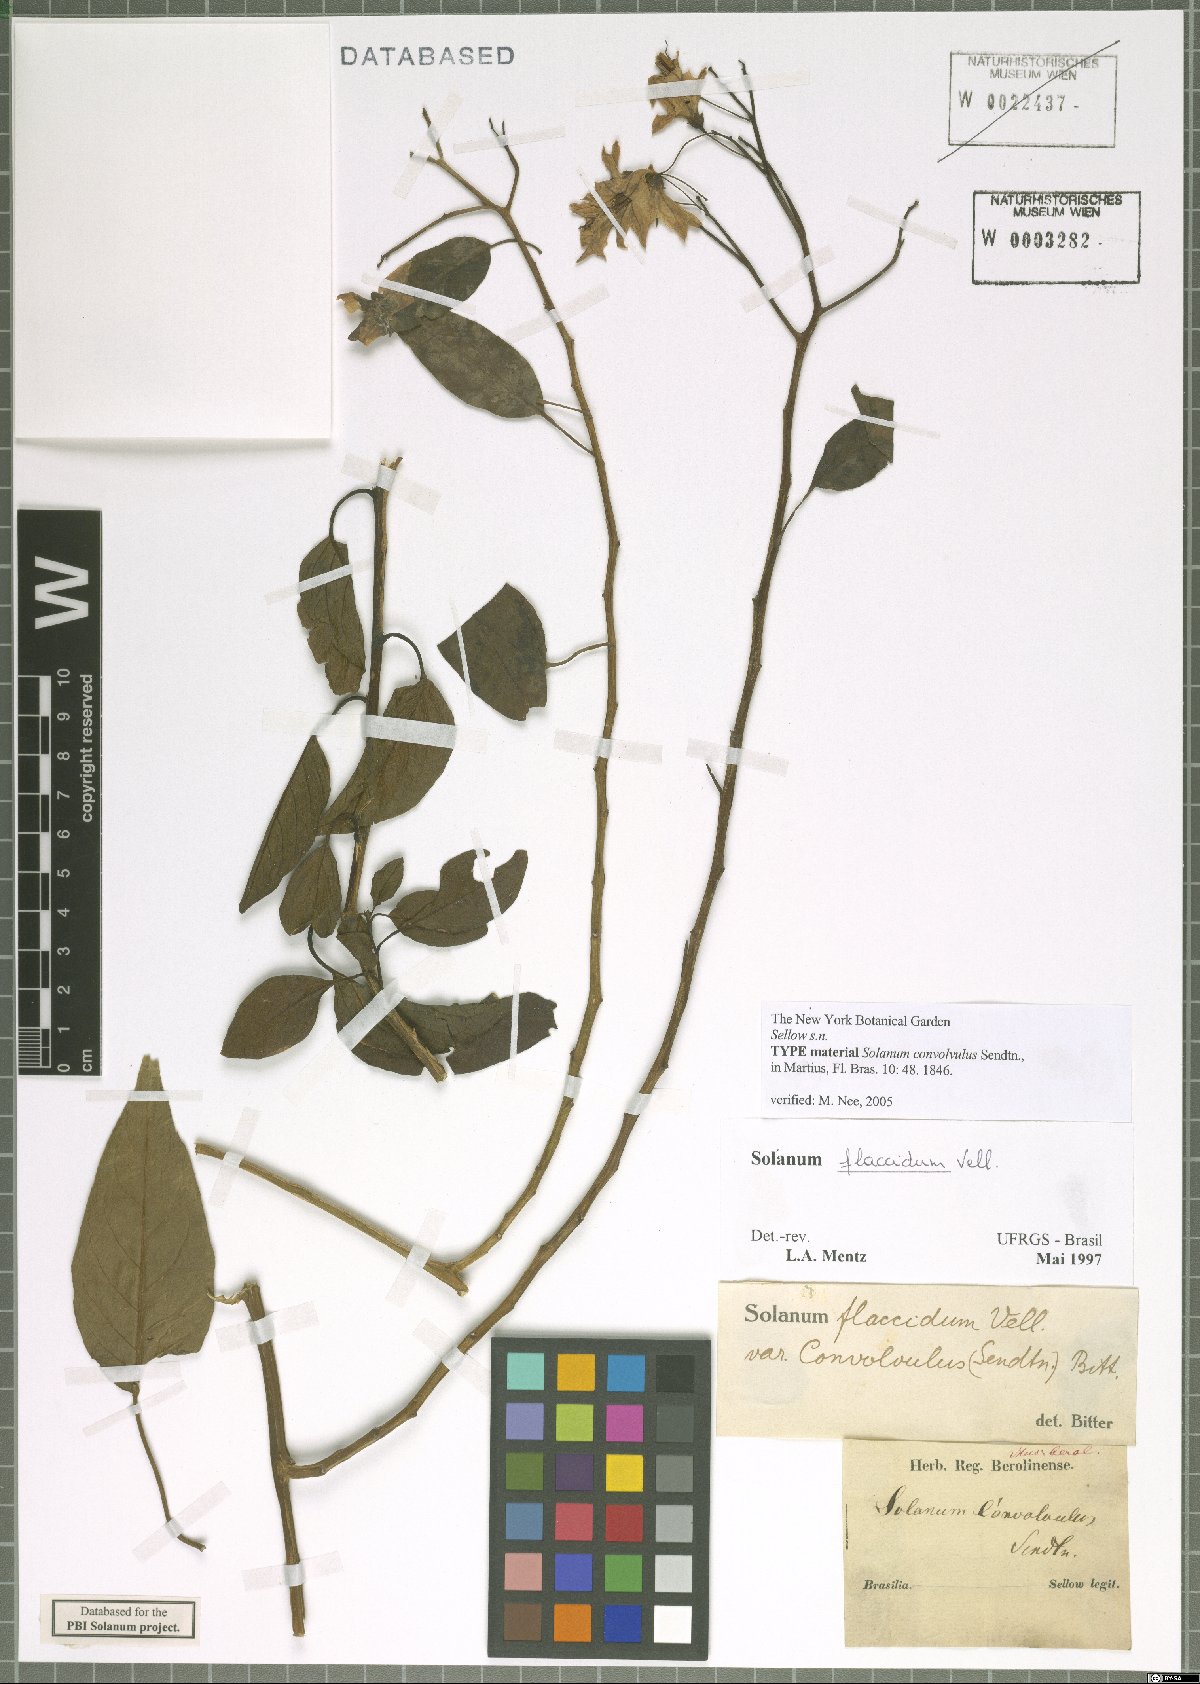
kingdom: Plantae
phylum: Tracheophyta
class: Magnoliopsida
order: Solanales
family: Solanaceae
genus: Solanum
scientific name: Solanum flaccidum
